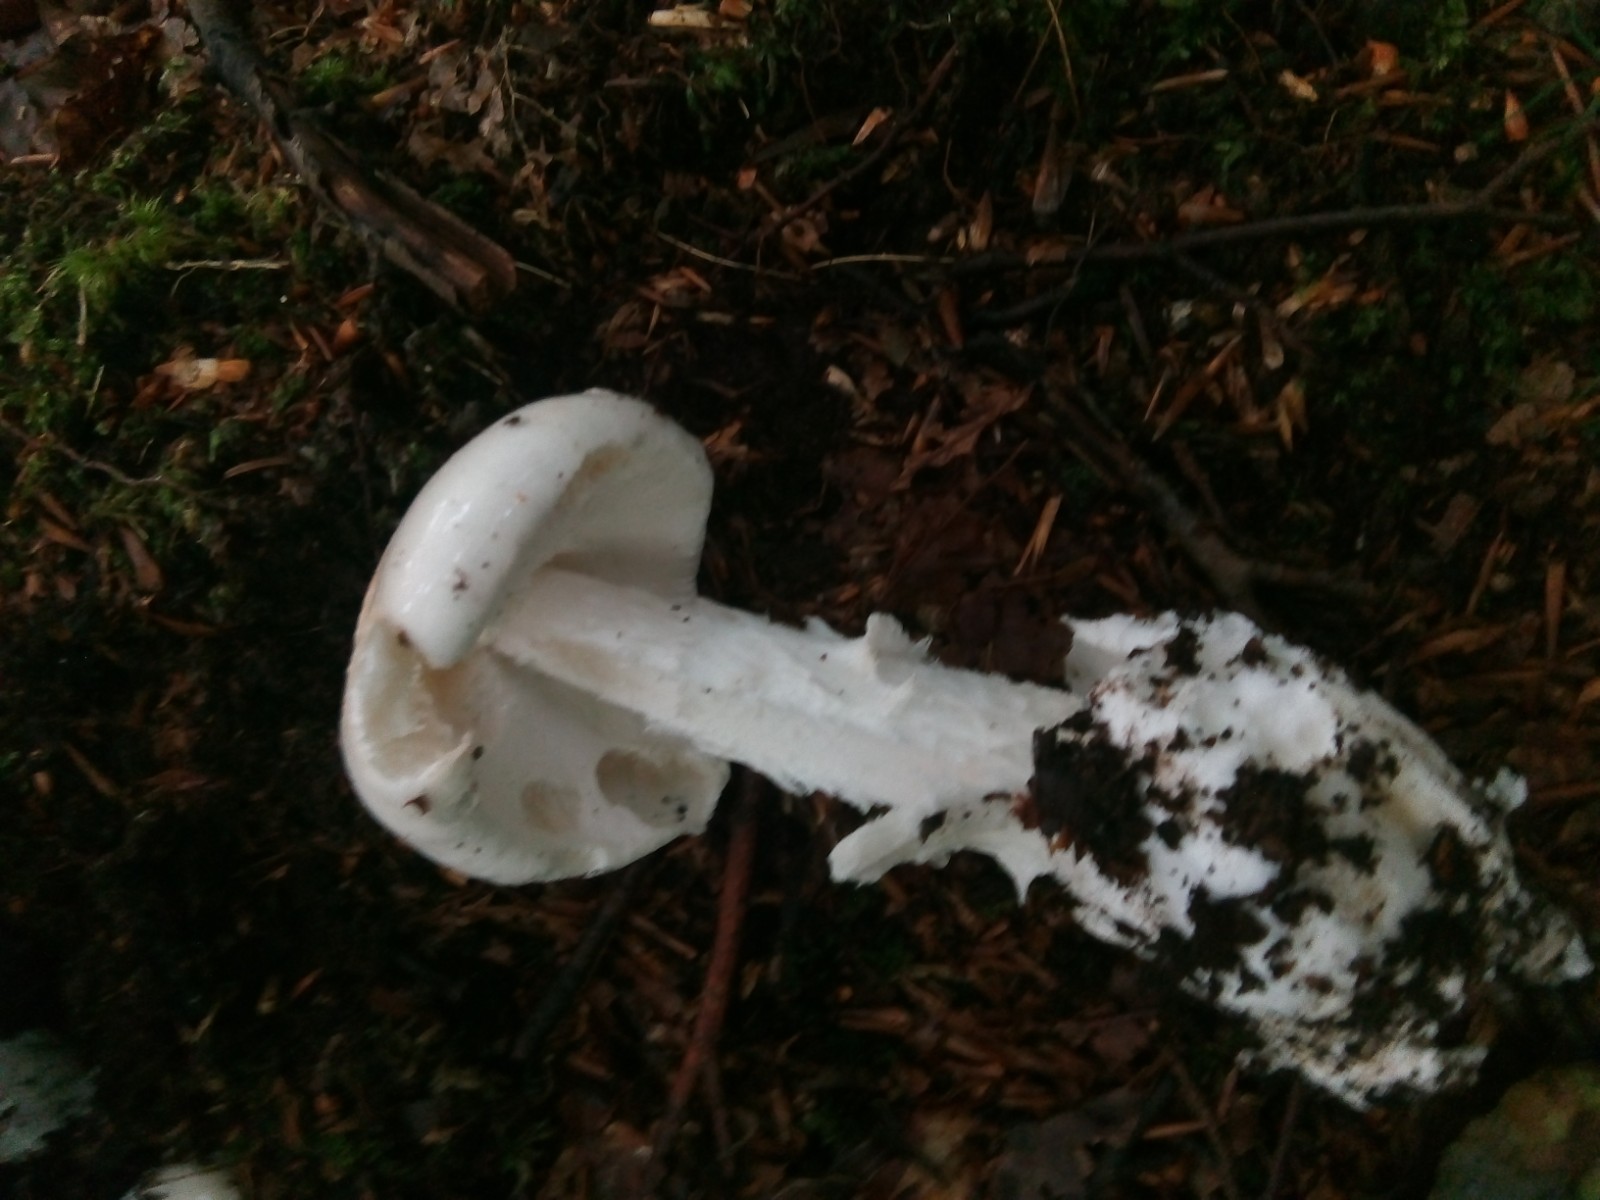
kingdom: Fungi
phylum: Basidiomycota
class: Agaricomycetes
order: Agaricales
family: Amanitaceae
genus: Amanita
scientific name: Amanita virosa
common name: snehvid fluesvamp
